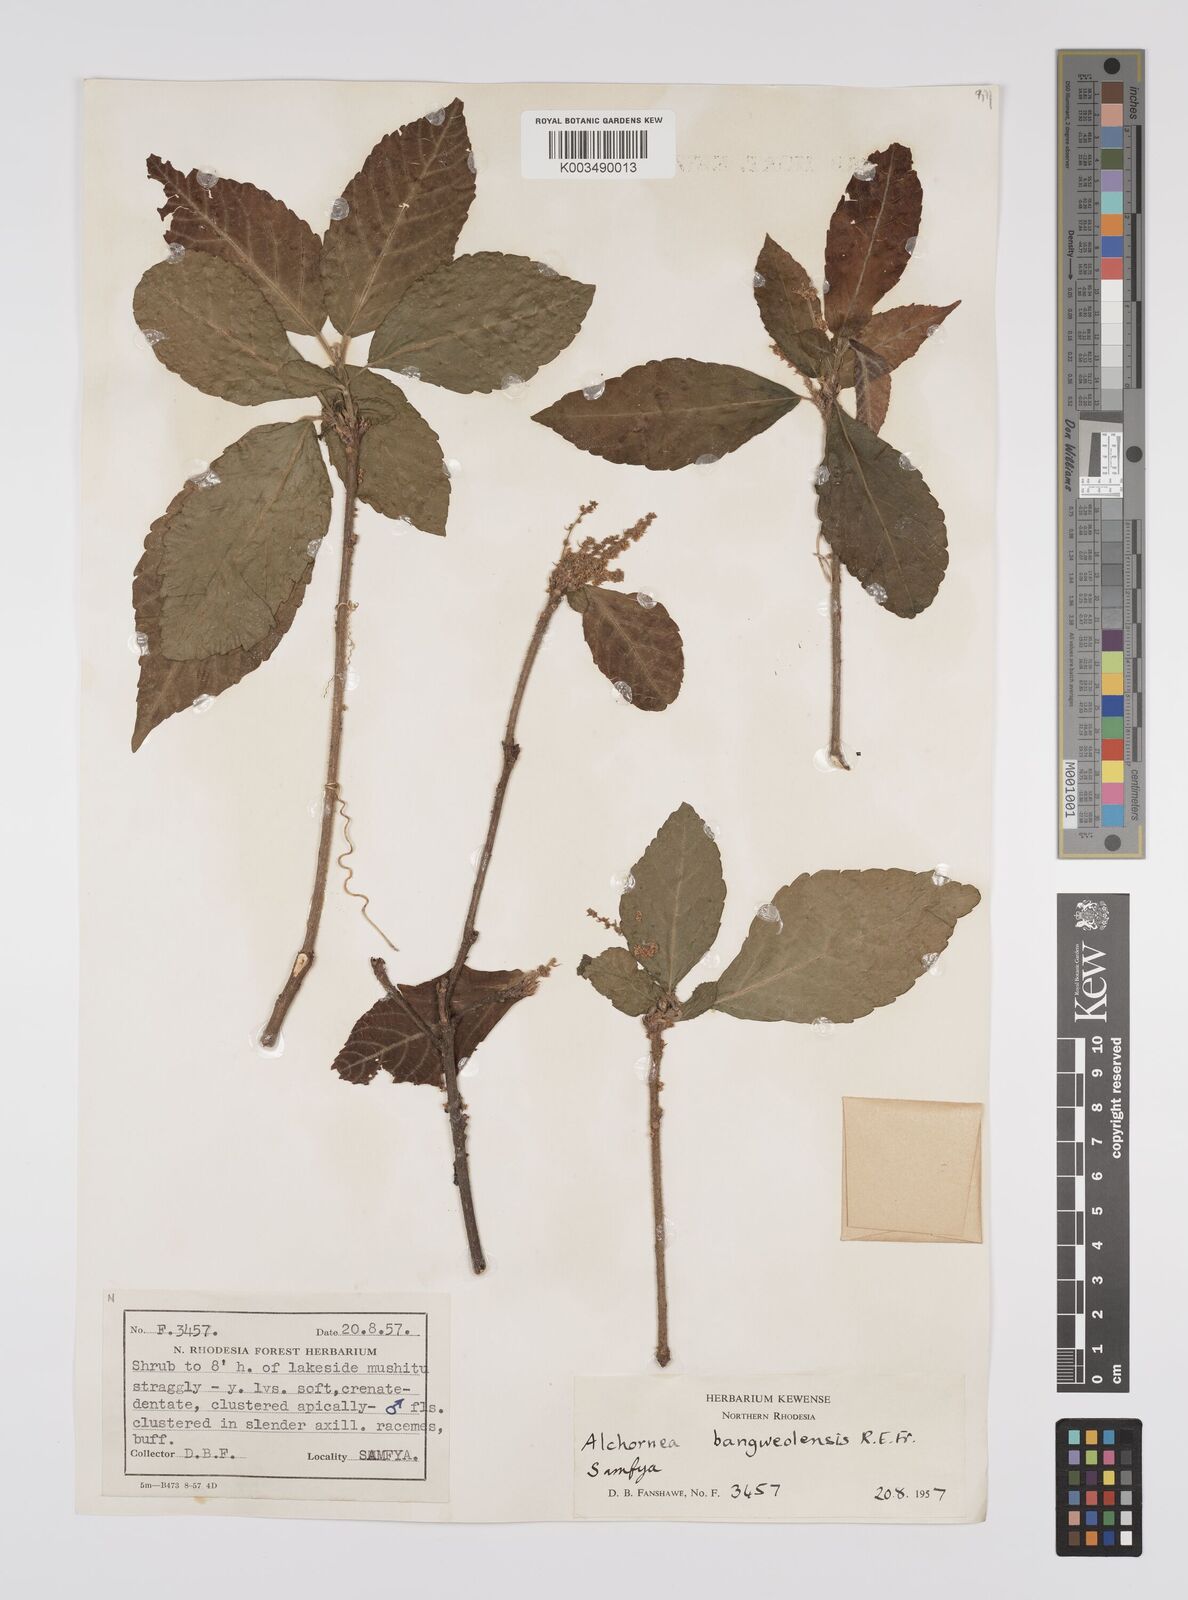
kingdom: Plantae
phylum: Tracheophyta
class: Magnoliopsida
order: Malpighiales
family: Euphorbiaceae
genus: Alchornea
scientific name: Alchornea yambuyaensis
